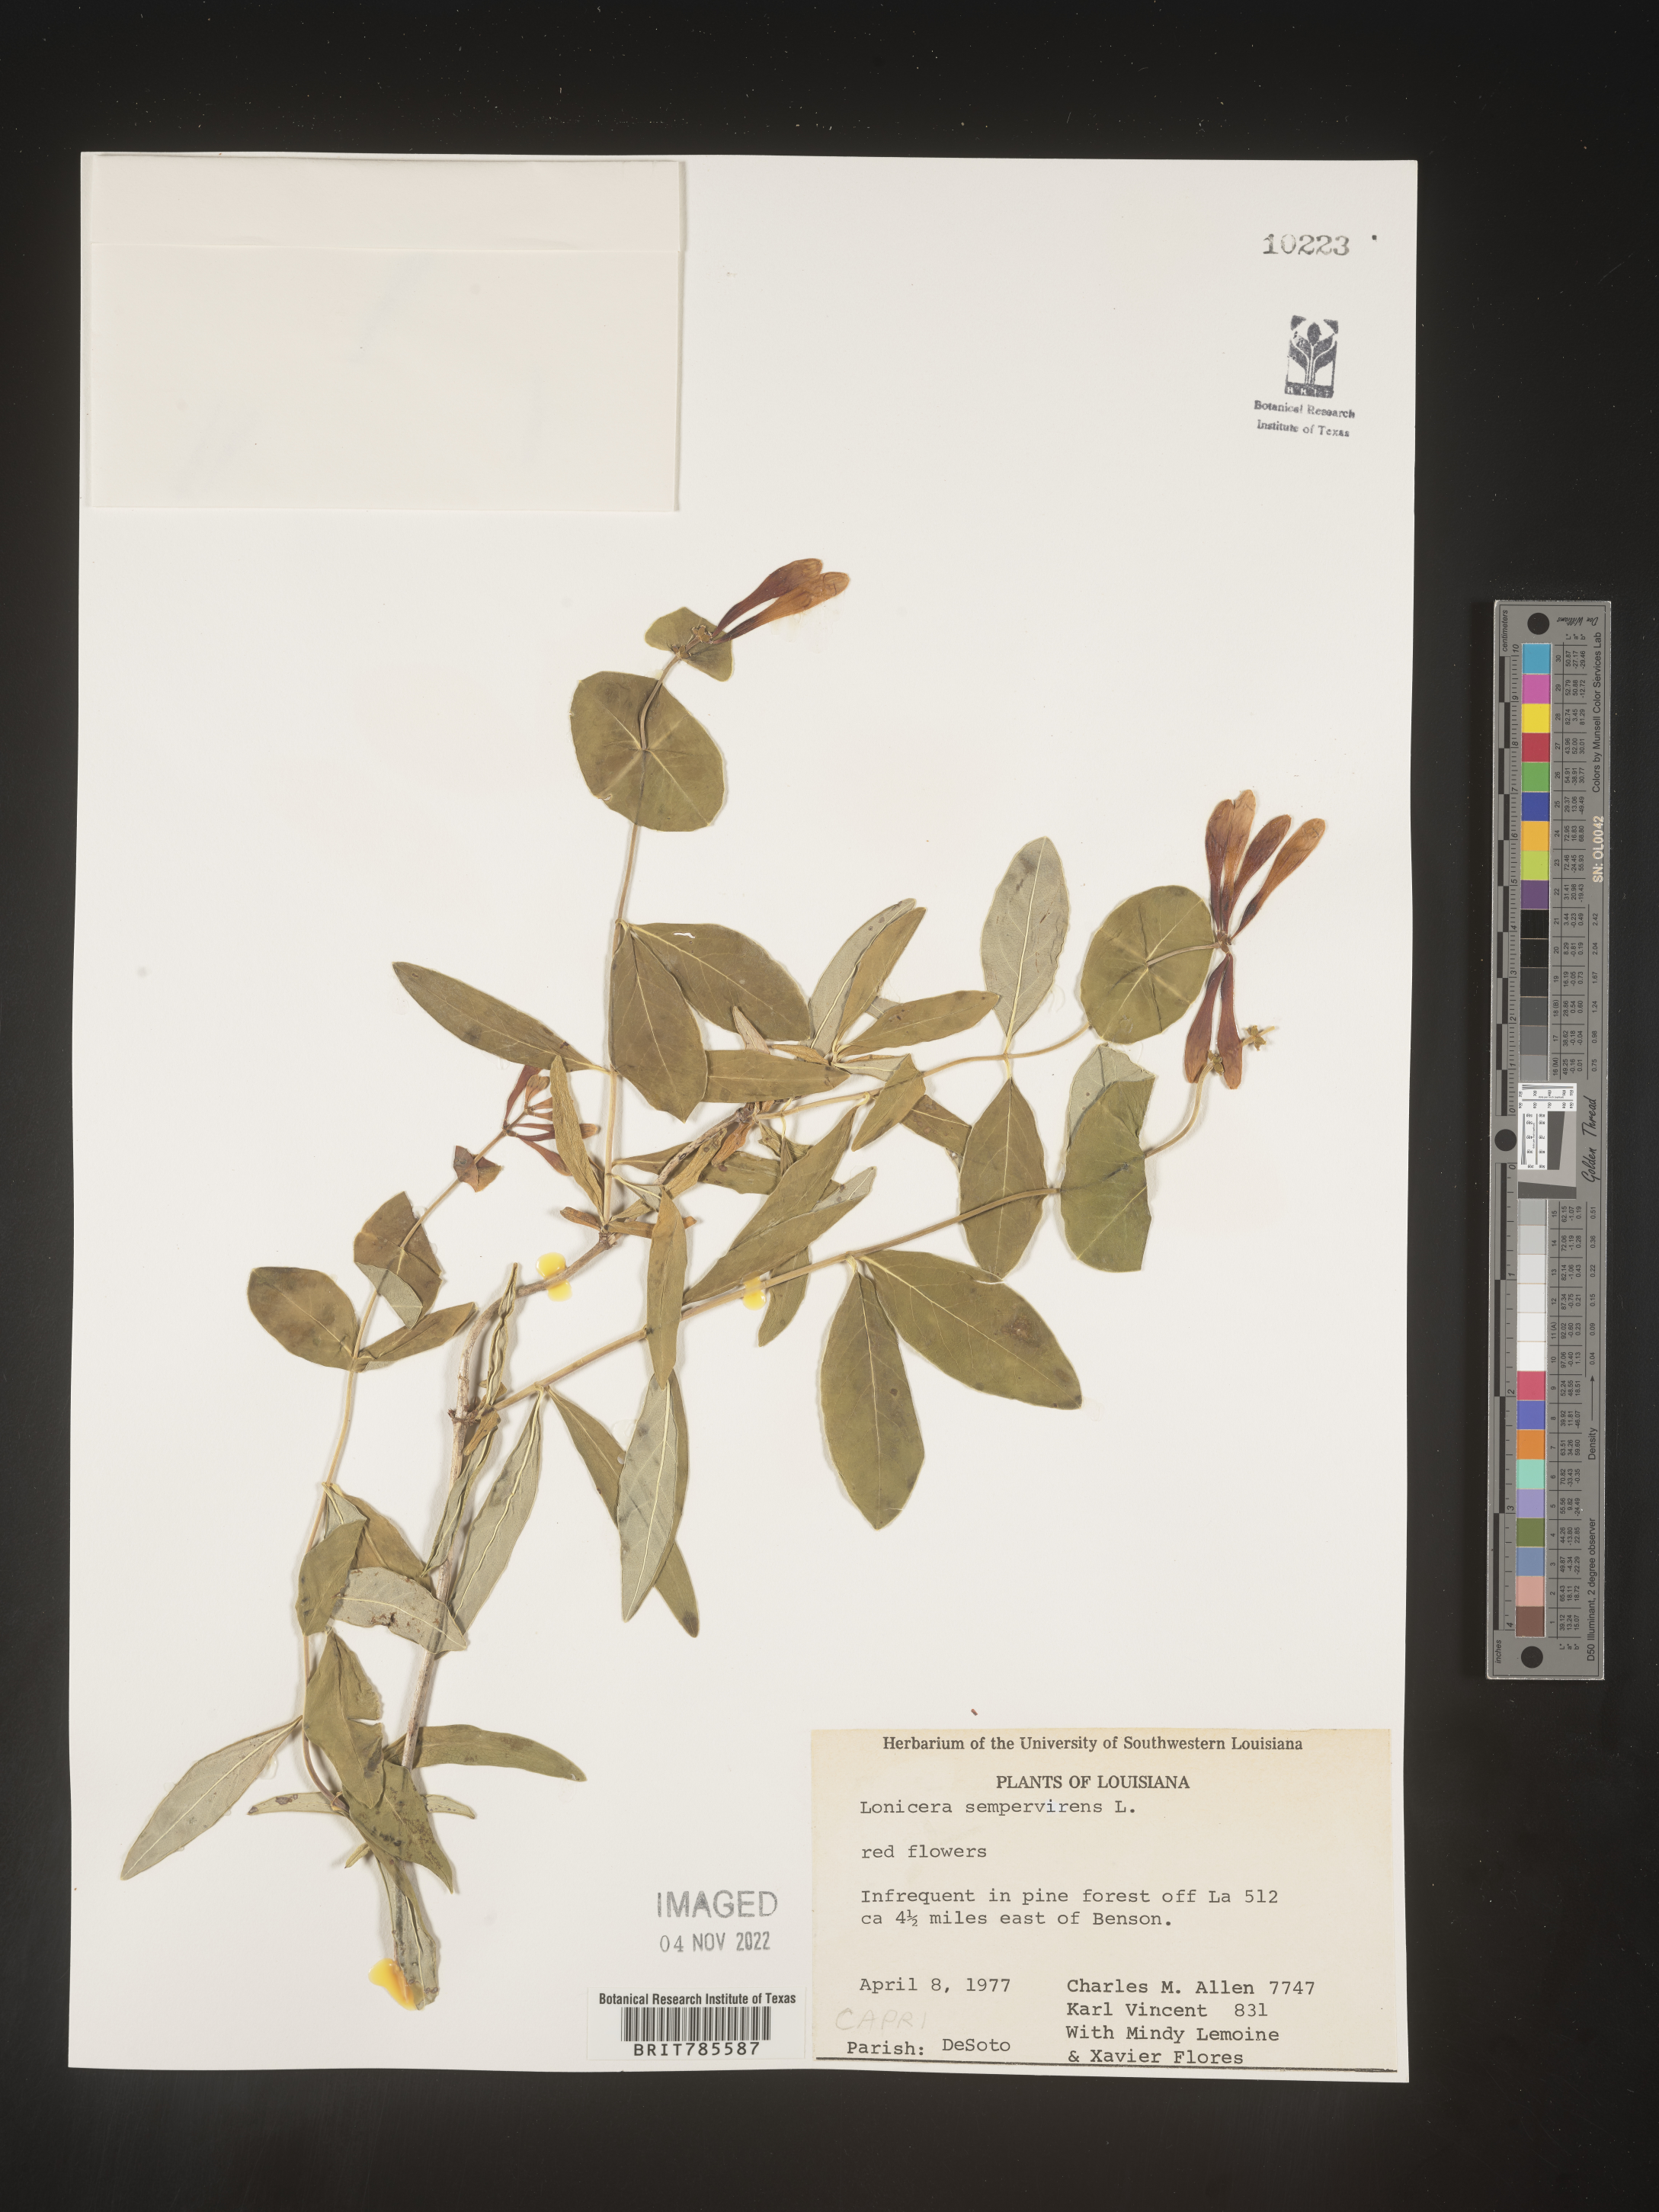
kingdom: Plantae
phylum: Tracheophyta
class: Magnoliopsida
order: Dipsacales
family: Caprifoliaceae
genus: Lonicera
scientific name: Lonicera sempervirens
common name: Coral honeysuckle
